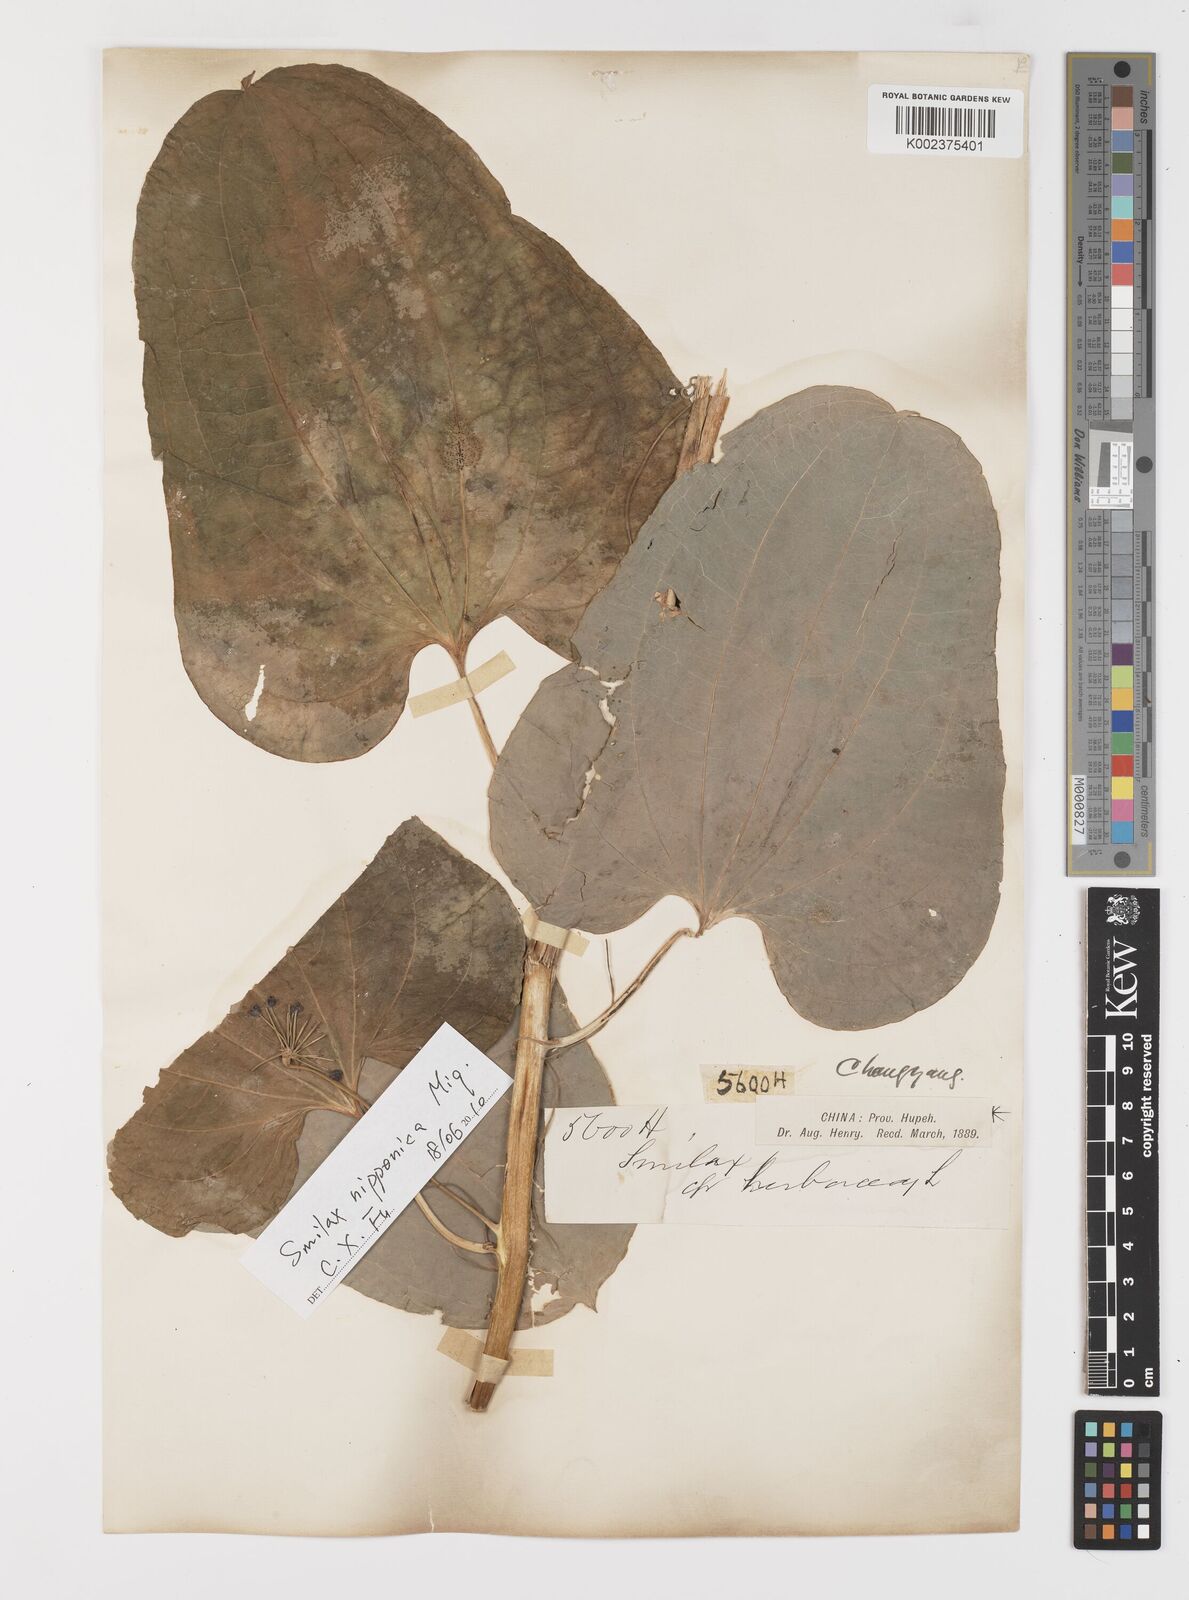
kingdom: Plantae
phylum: Tracheophyta
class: Liliopsida
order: Liliales
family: Smilacaceae
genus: Smilax
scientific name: Smilax anceps
